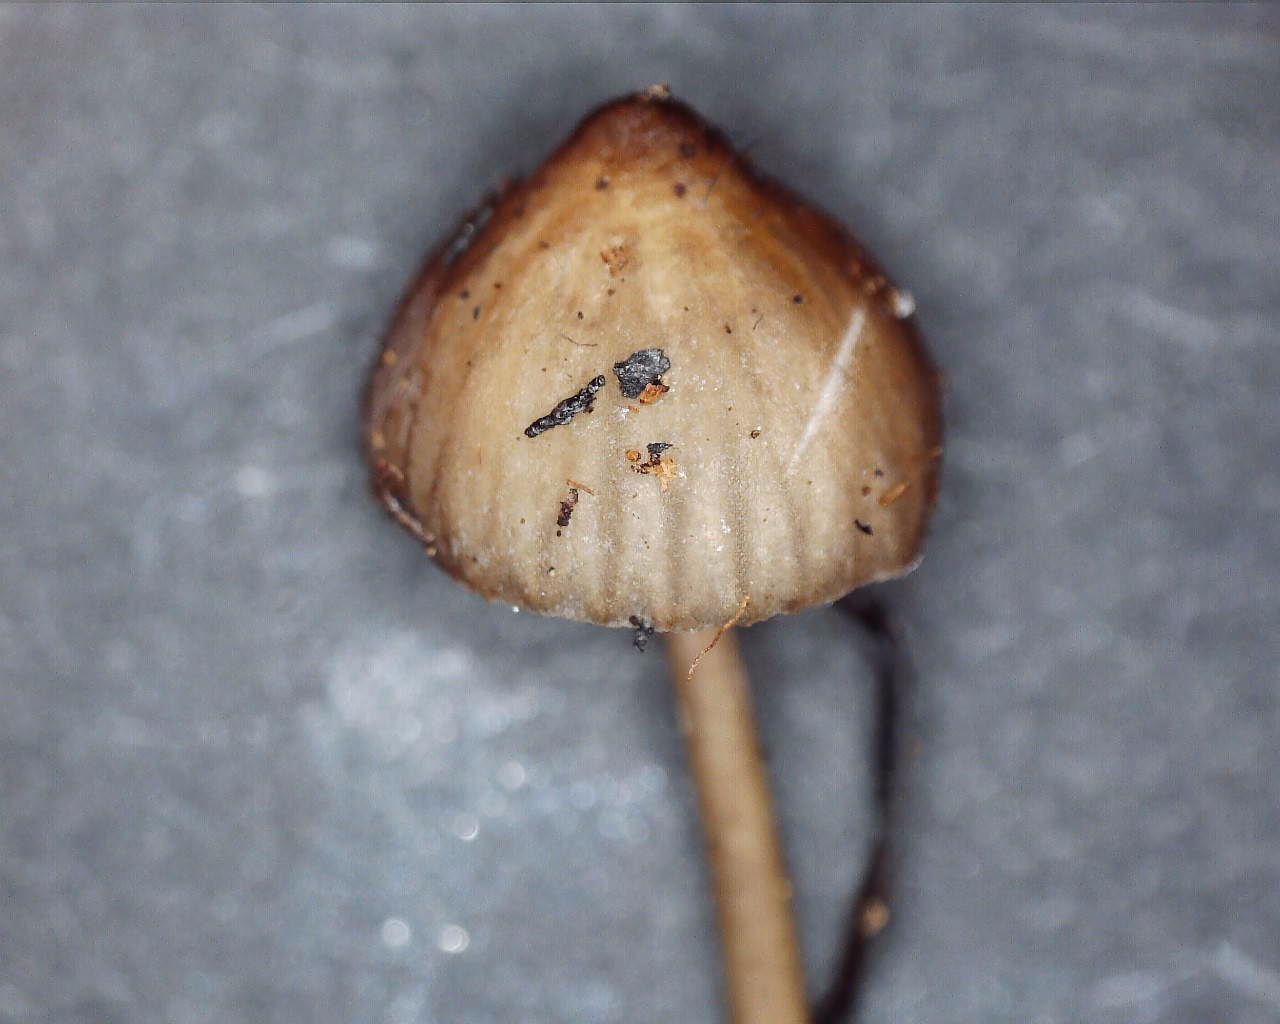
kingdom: Fungi
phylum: Basidiomycota
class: Agaricomycetes
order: Agaricales
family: Mycenaceae
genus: Mycena
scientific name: Mycena galopus
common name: hvidmælket huesvamp
